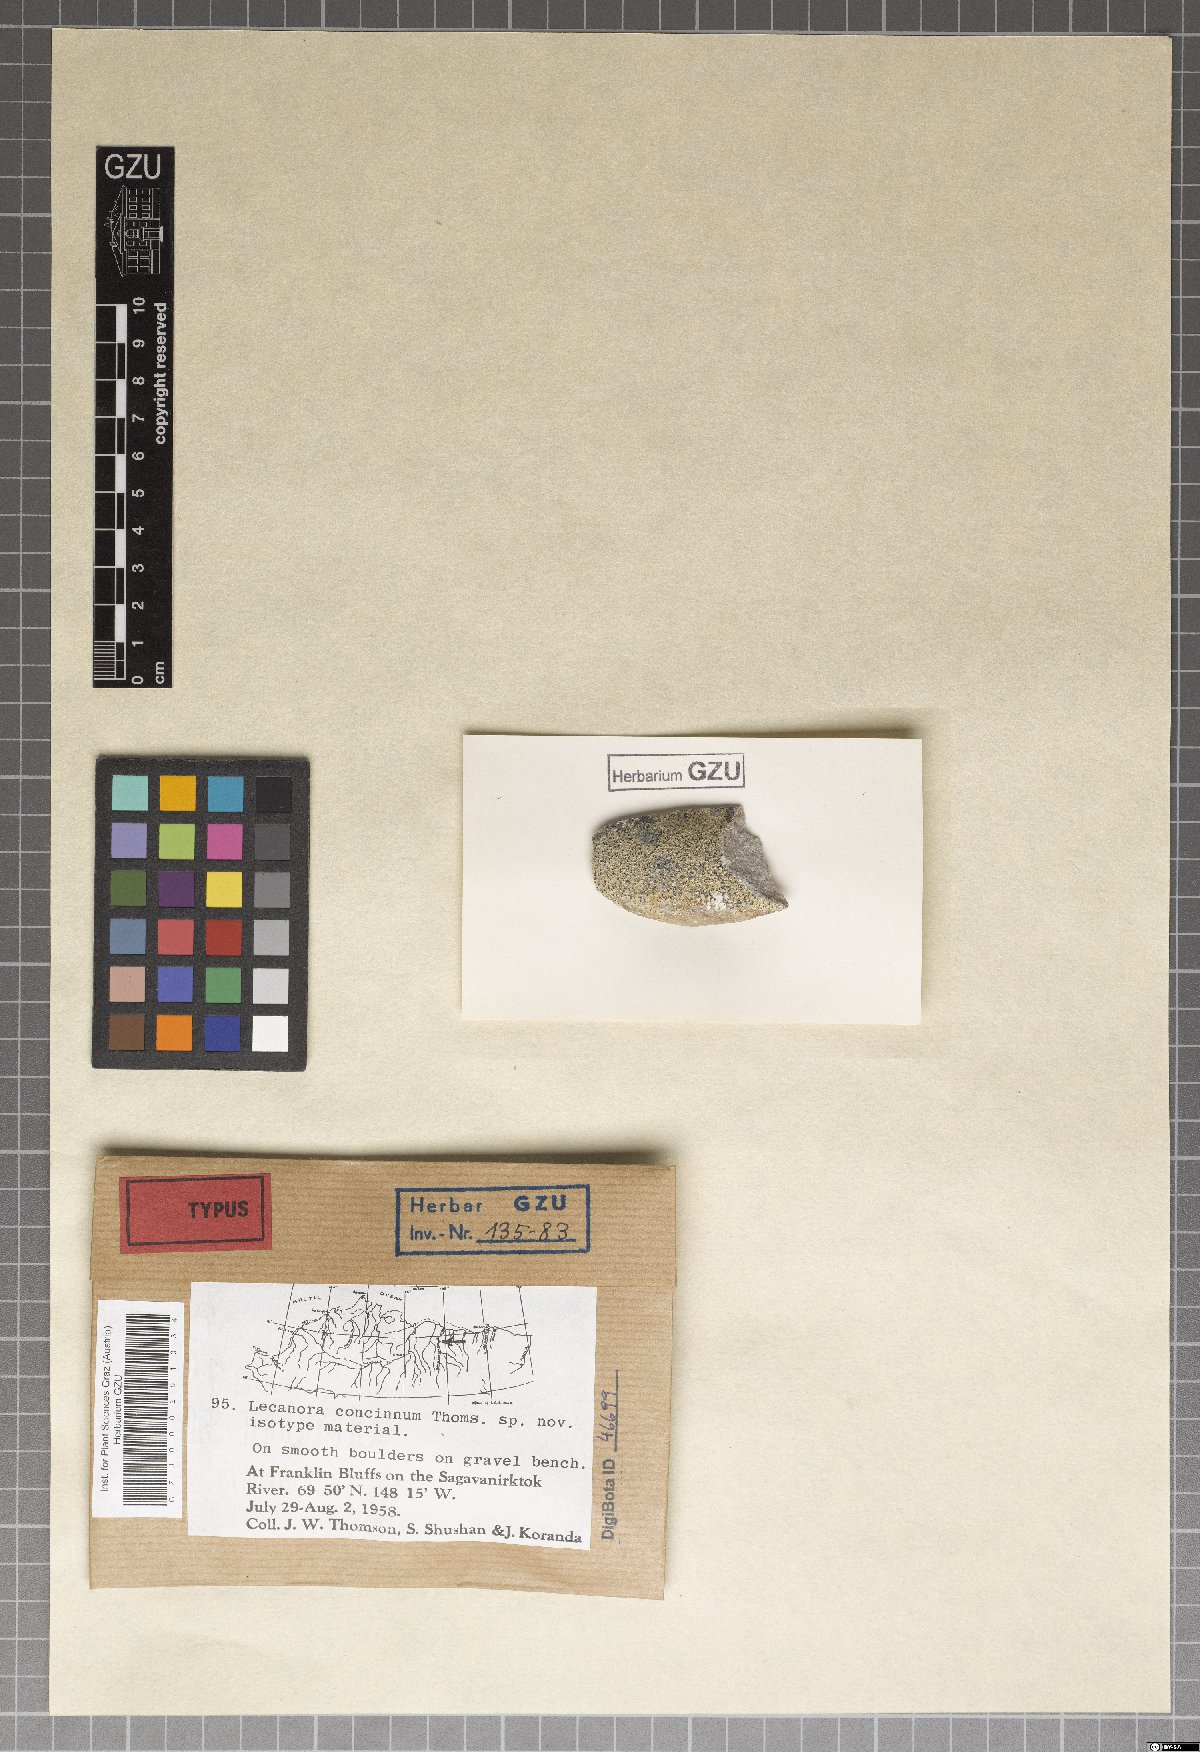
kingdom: Fungi
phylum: Ascomycota
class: Lecanoromycetes
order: Lecanorales
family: Lecanoraceae
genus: Lecanora
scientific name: Lecanora concinna
